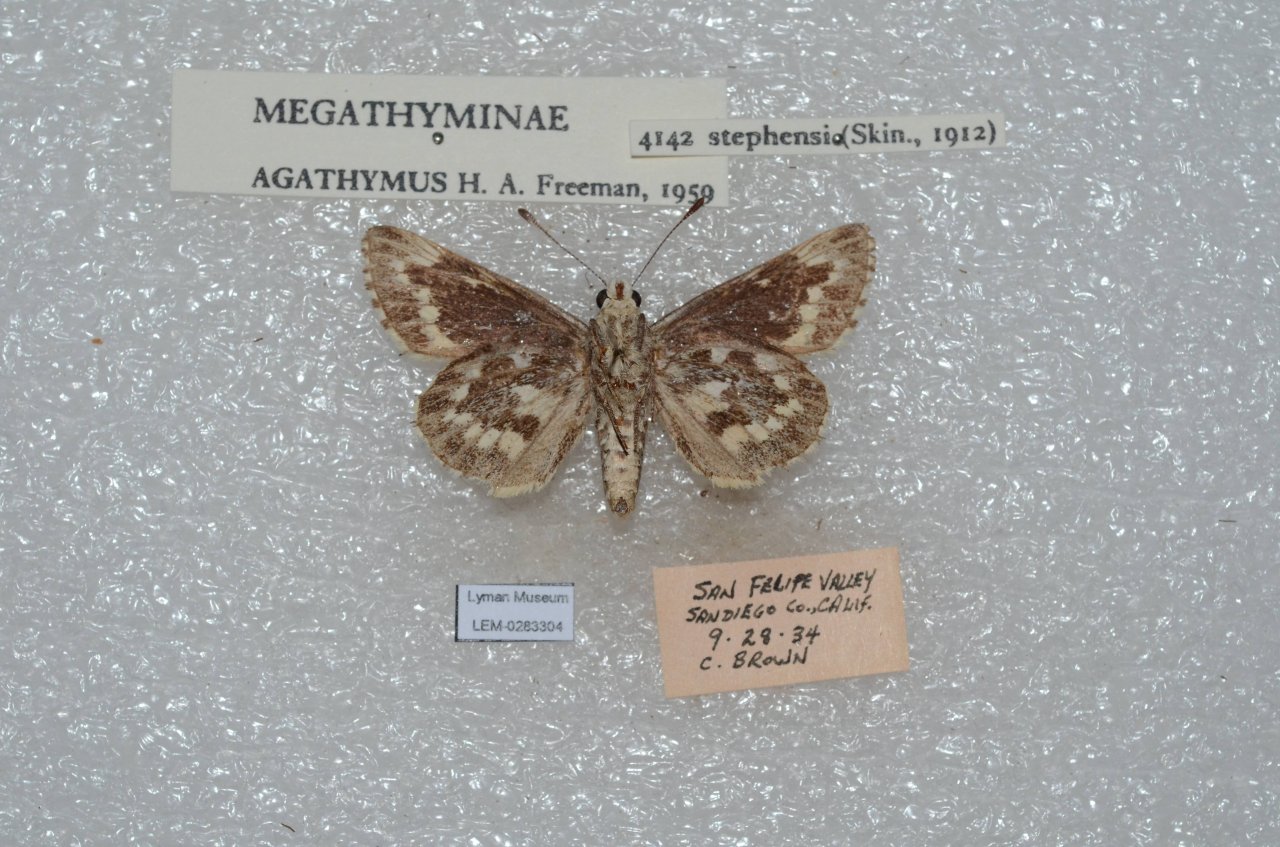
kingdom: Animalia
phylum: Arthropoda
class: Insecta
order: Lepidoptera
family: Hesperiidae
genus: Agathymus
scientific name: Agathymus stephensi
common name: California Giant-Skipper
